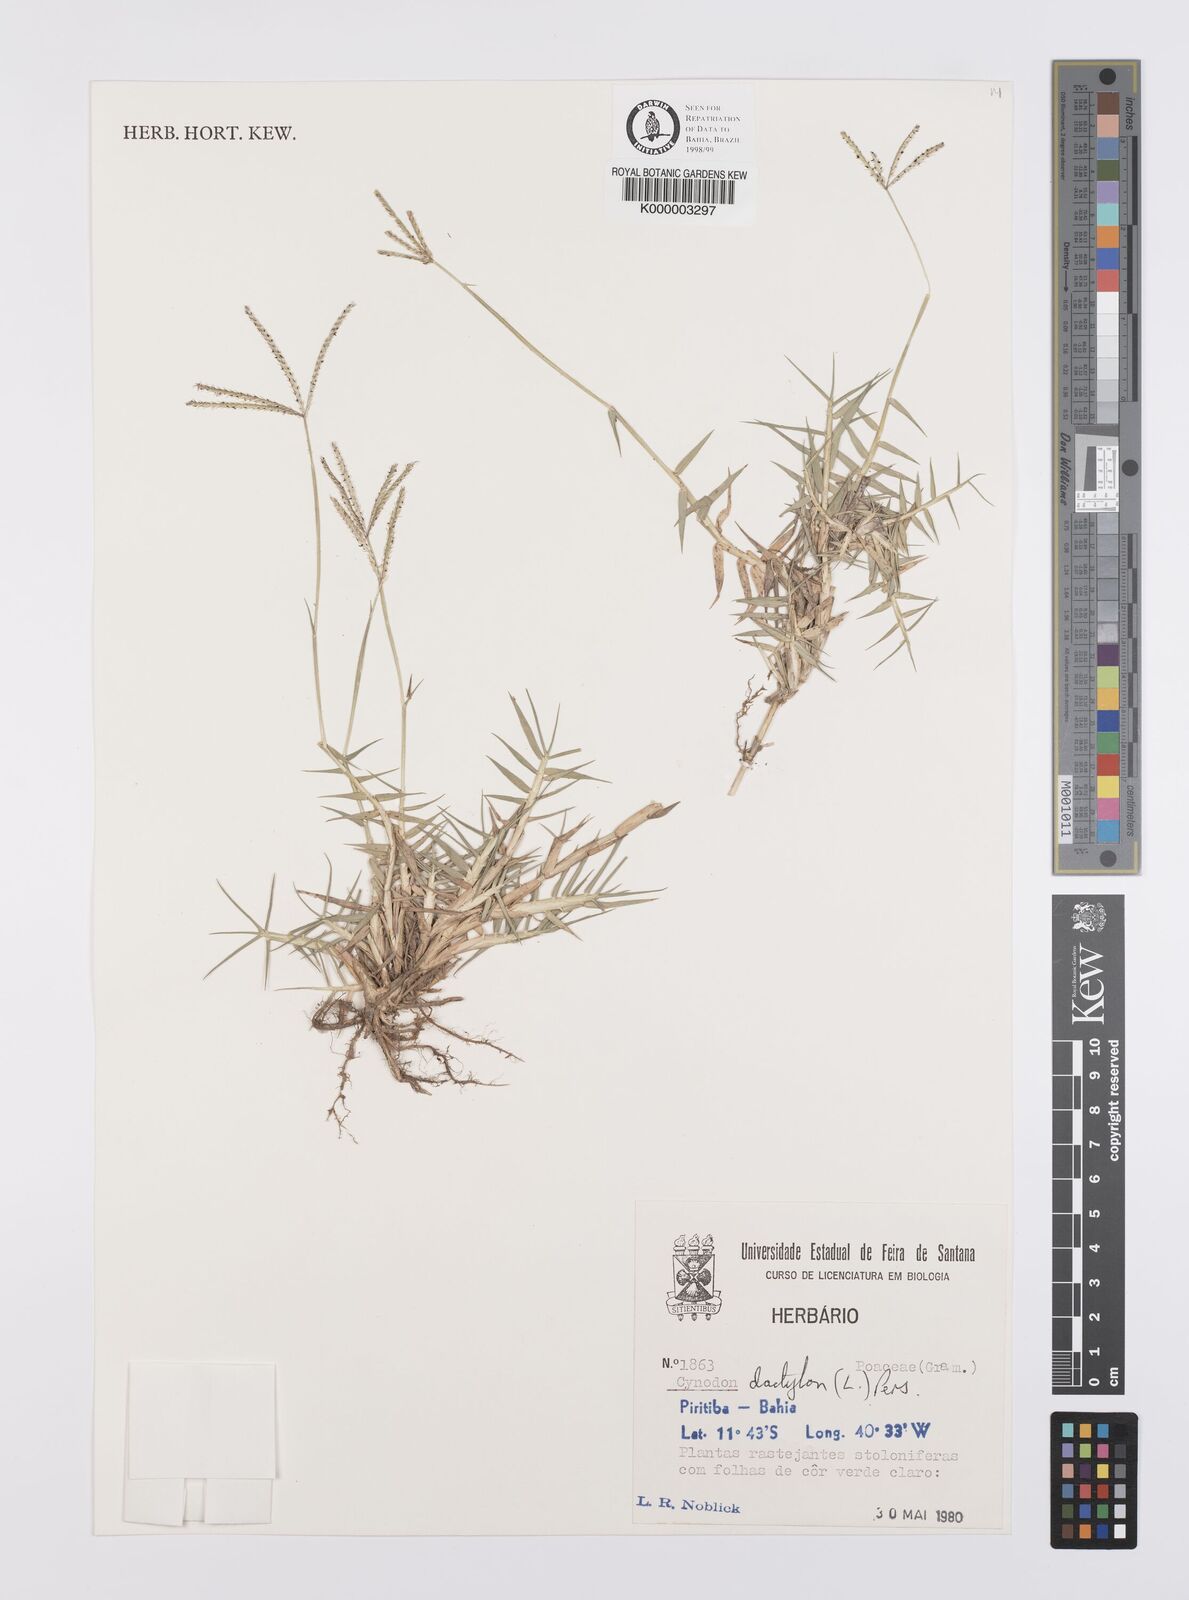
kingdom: Plantae
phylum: Tracheophyta
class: Liliopsida
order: Poales
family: Poaceae
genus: Cynodon
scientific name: Cynodon dactylon
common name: Bermuda grass
